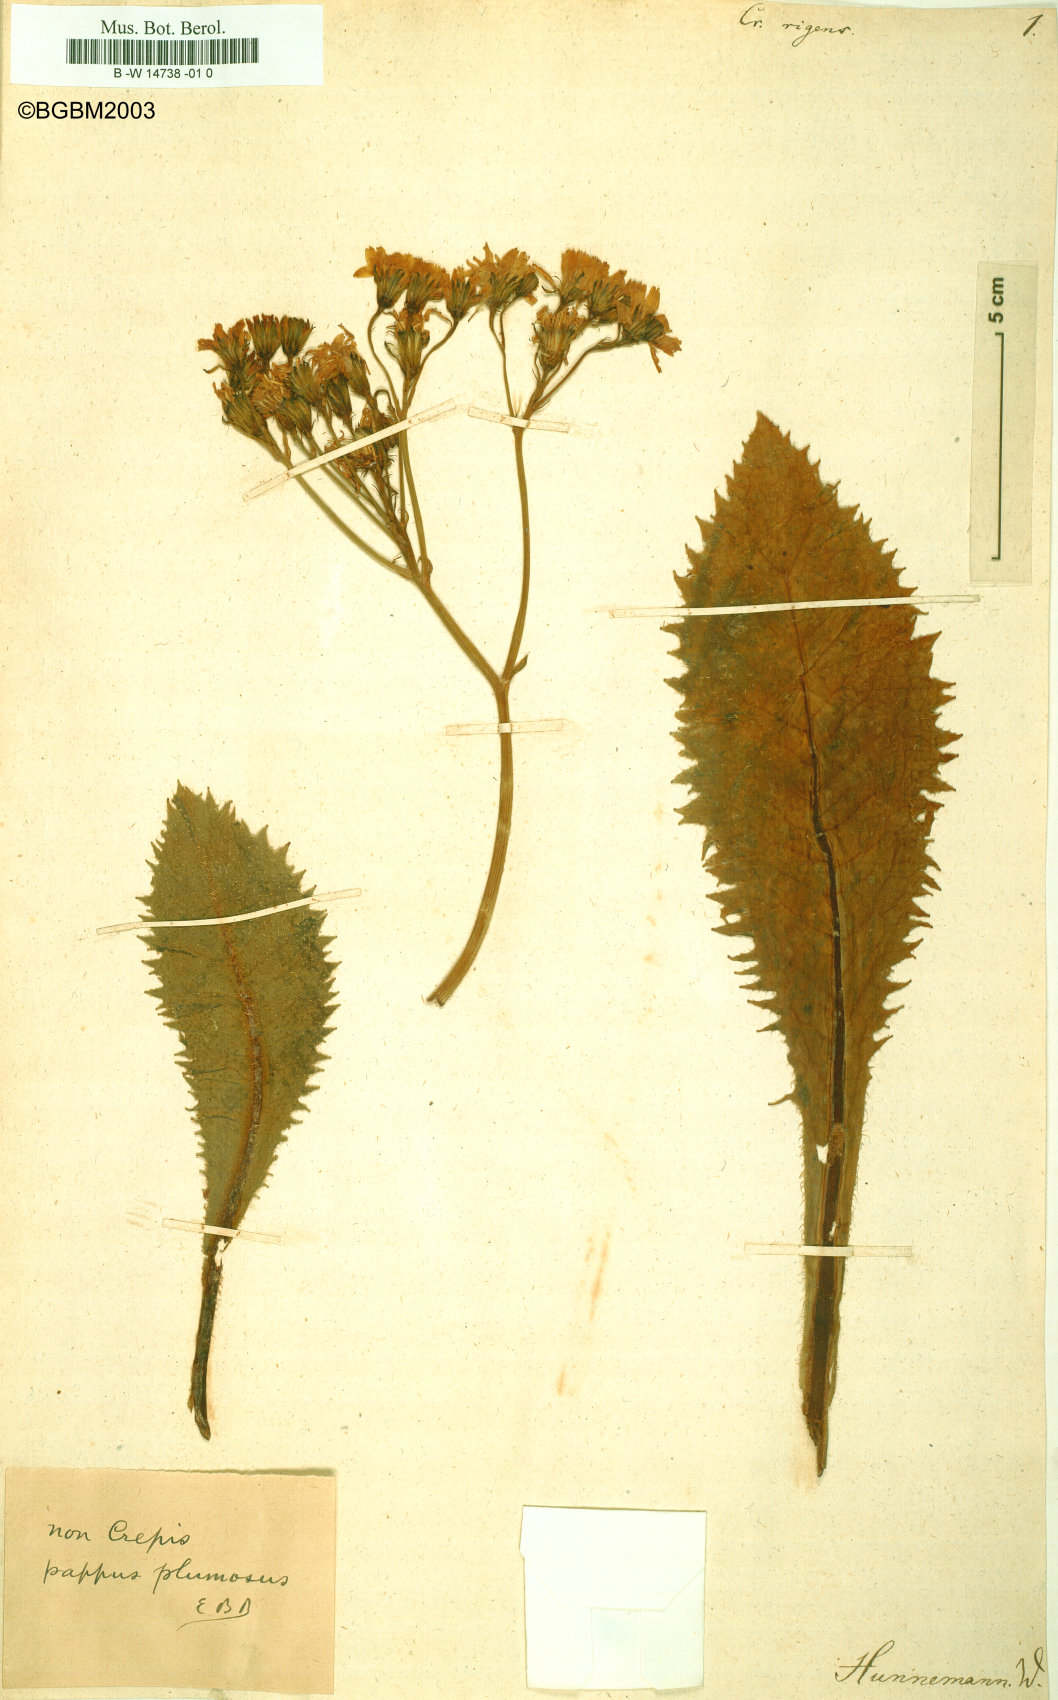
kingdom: Plantae
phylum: Tracheophyta
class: Magnoliopsida
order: Asterales
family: Asteraceae
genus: Leontodon
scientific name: Leontodon rigens
